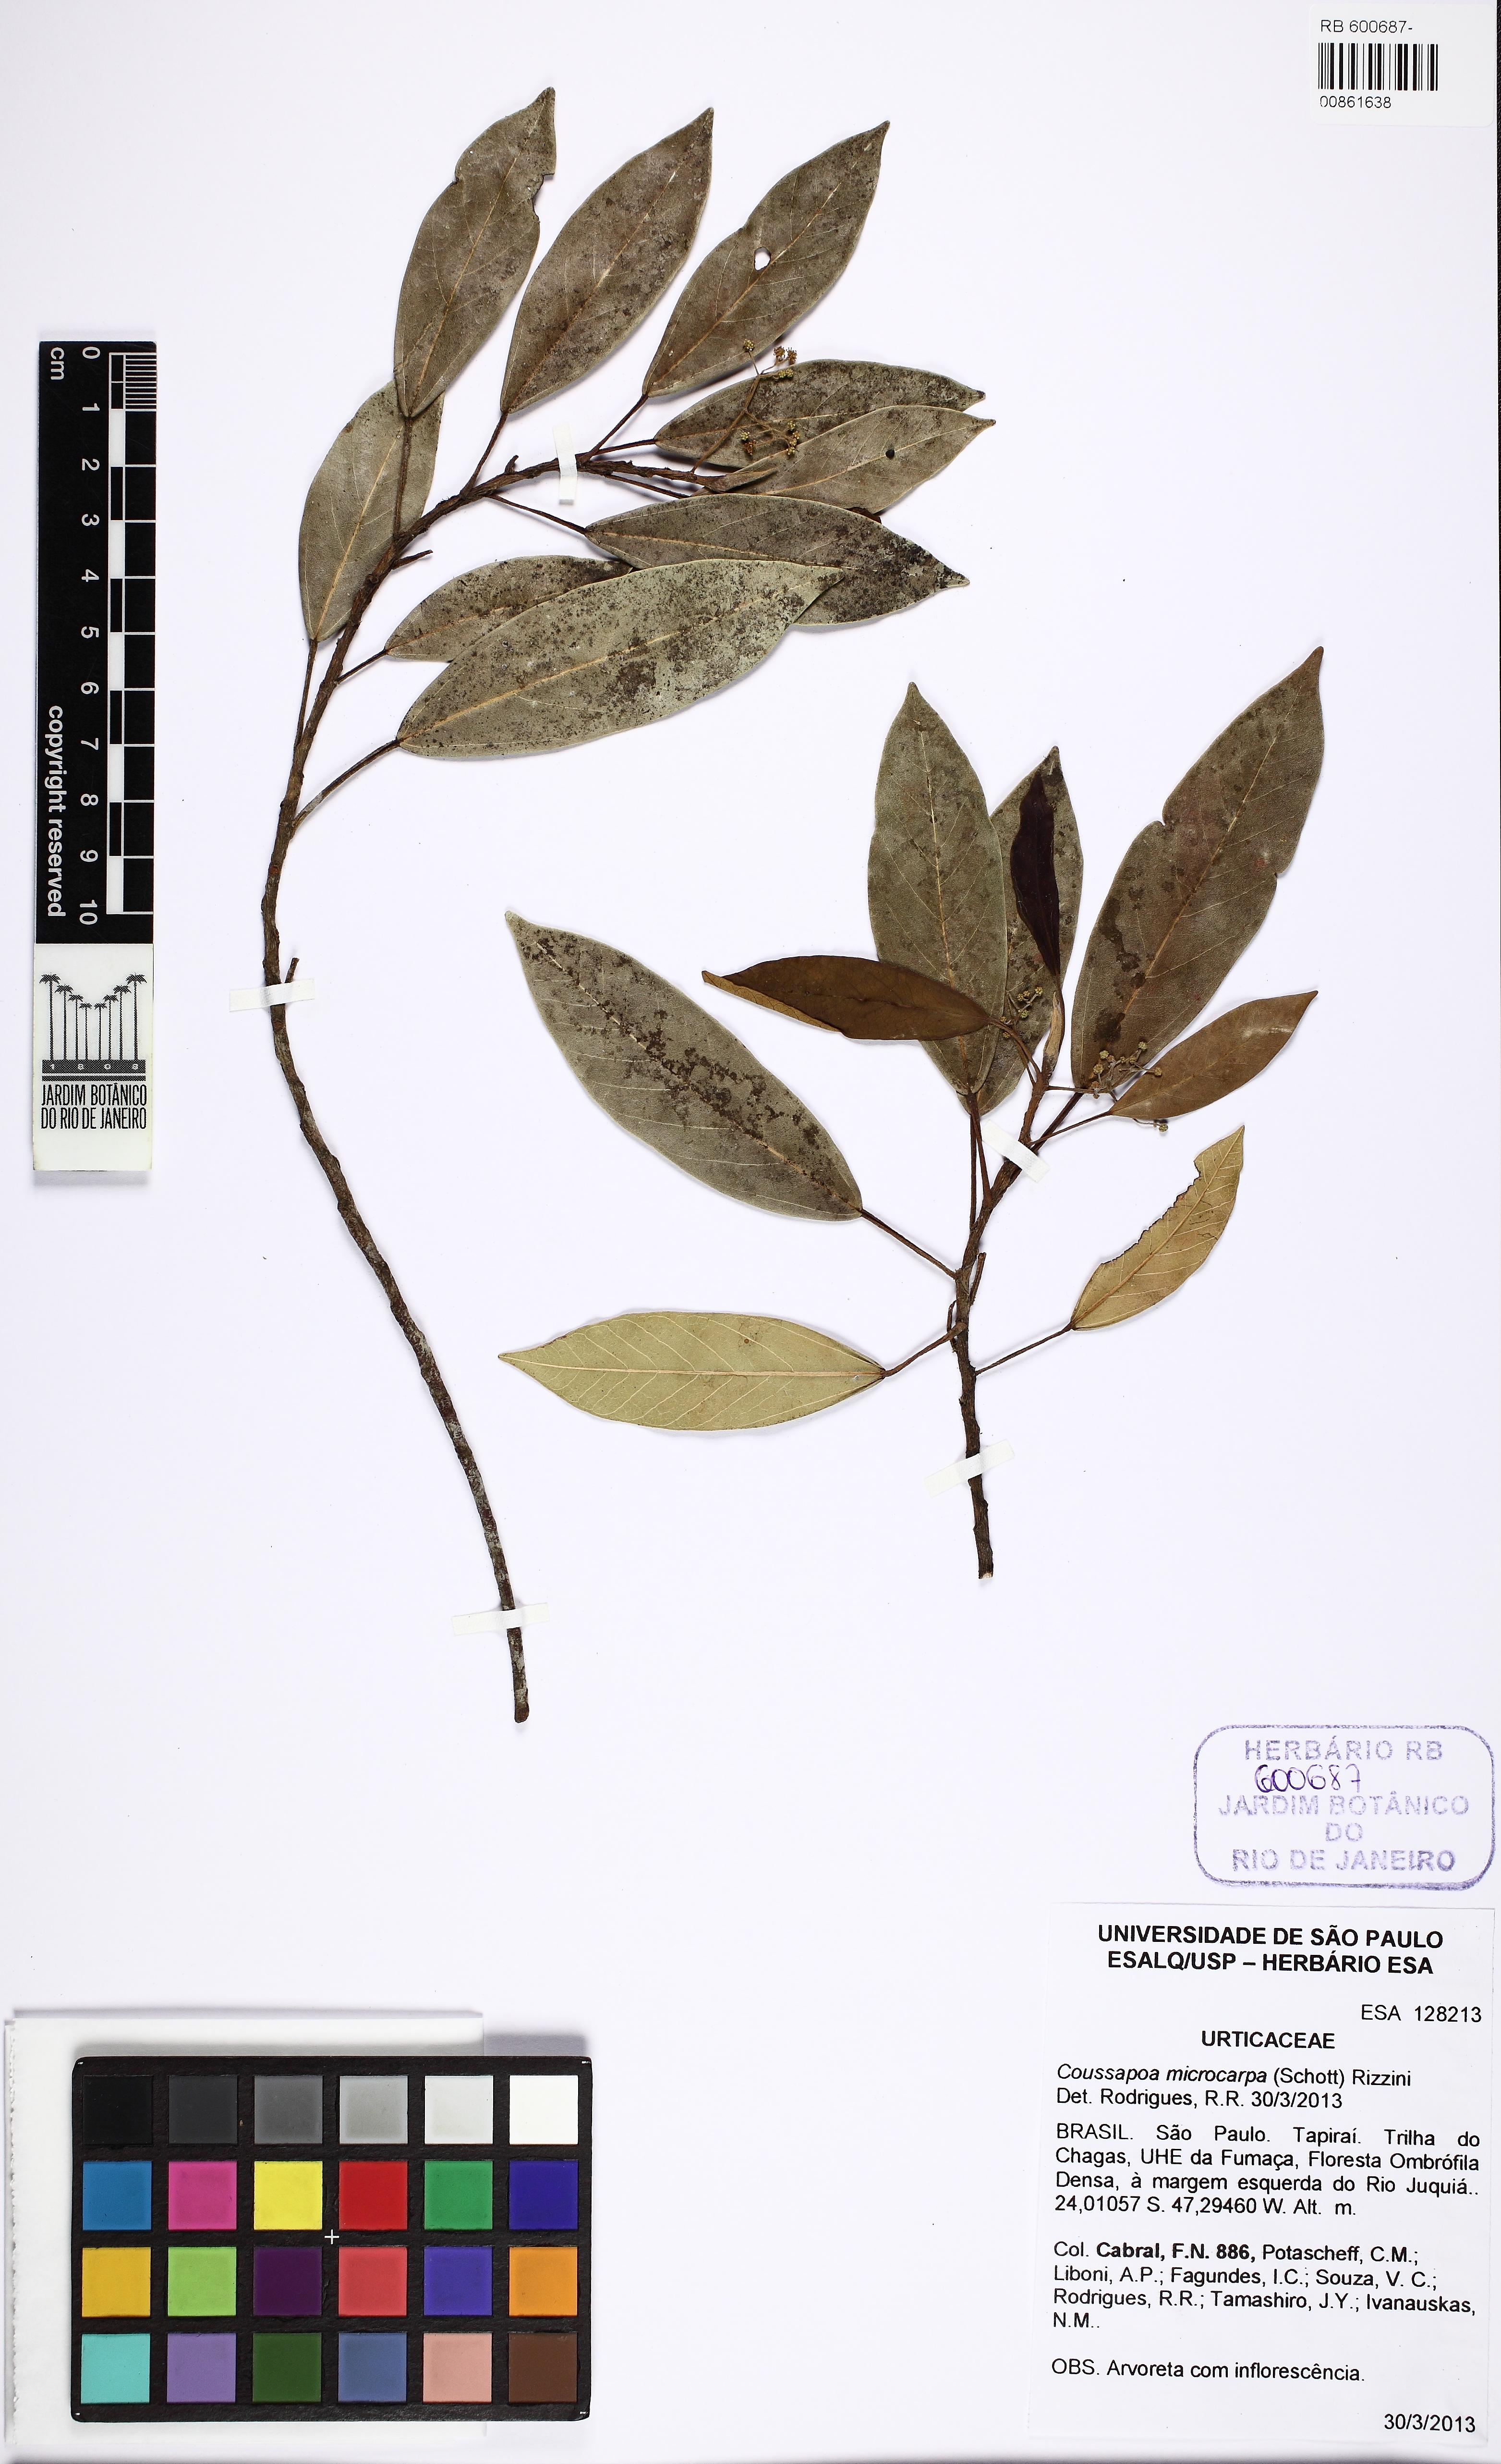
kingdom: Plantae
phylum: Tracheophyta
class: Magnoliopsida
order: Rosales
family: Urticaceae
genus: Coussapoa
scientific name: Coussapoa microcarpa
